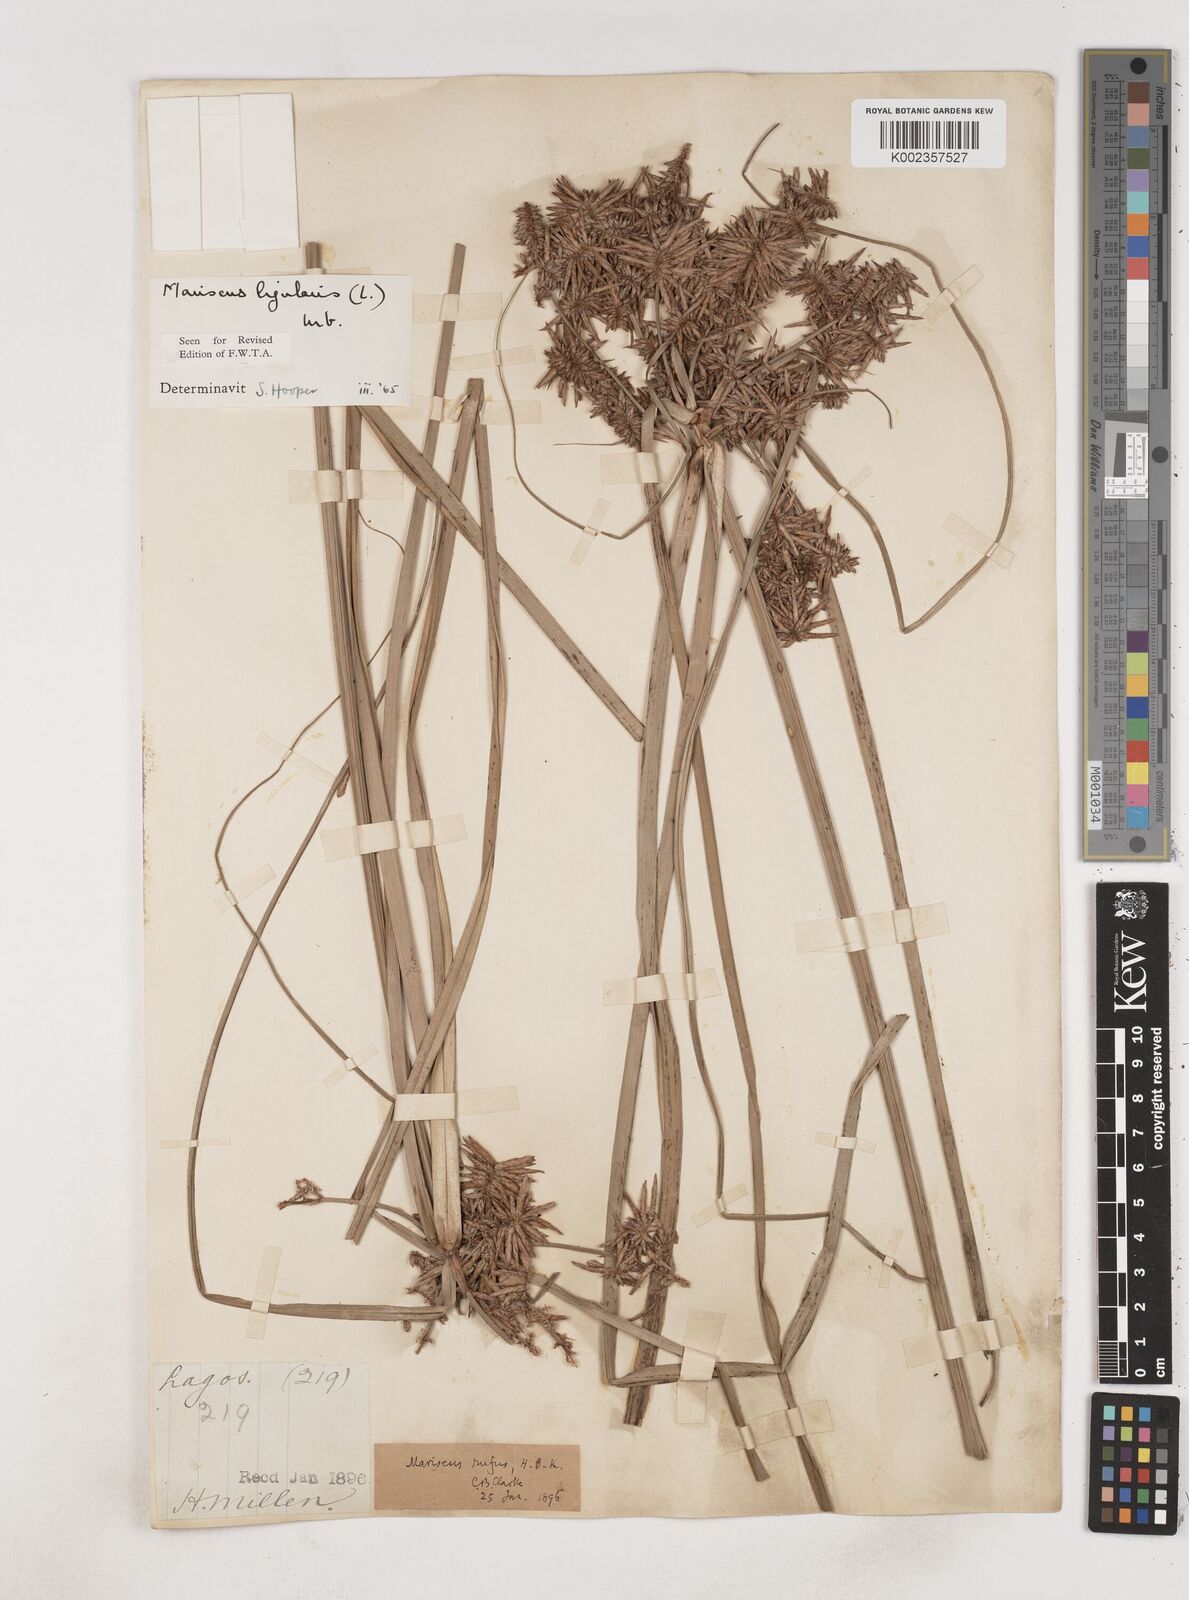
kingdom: Plantae
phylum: Tracheophyta
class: Liliopsida
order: Poales
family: Cyperaceae
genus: Cyperus
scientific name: Cyperus ligularis
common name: Swamp flat sedge
